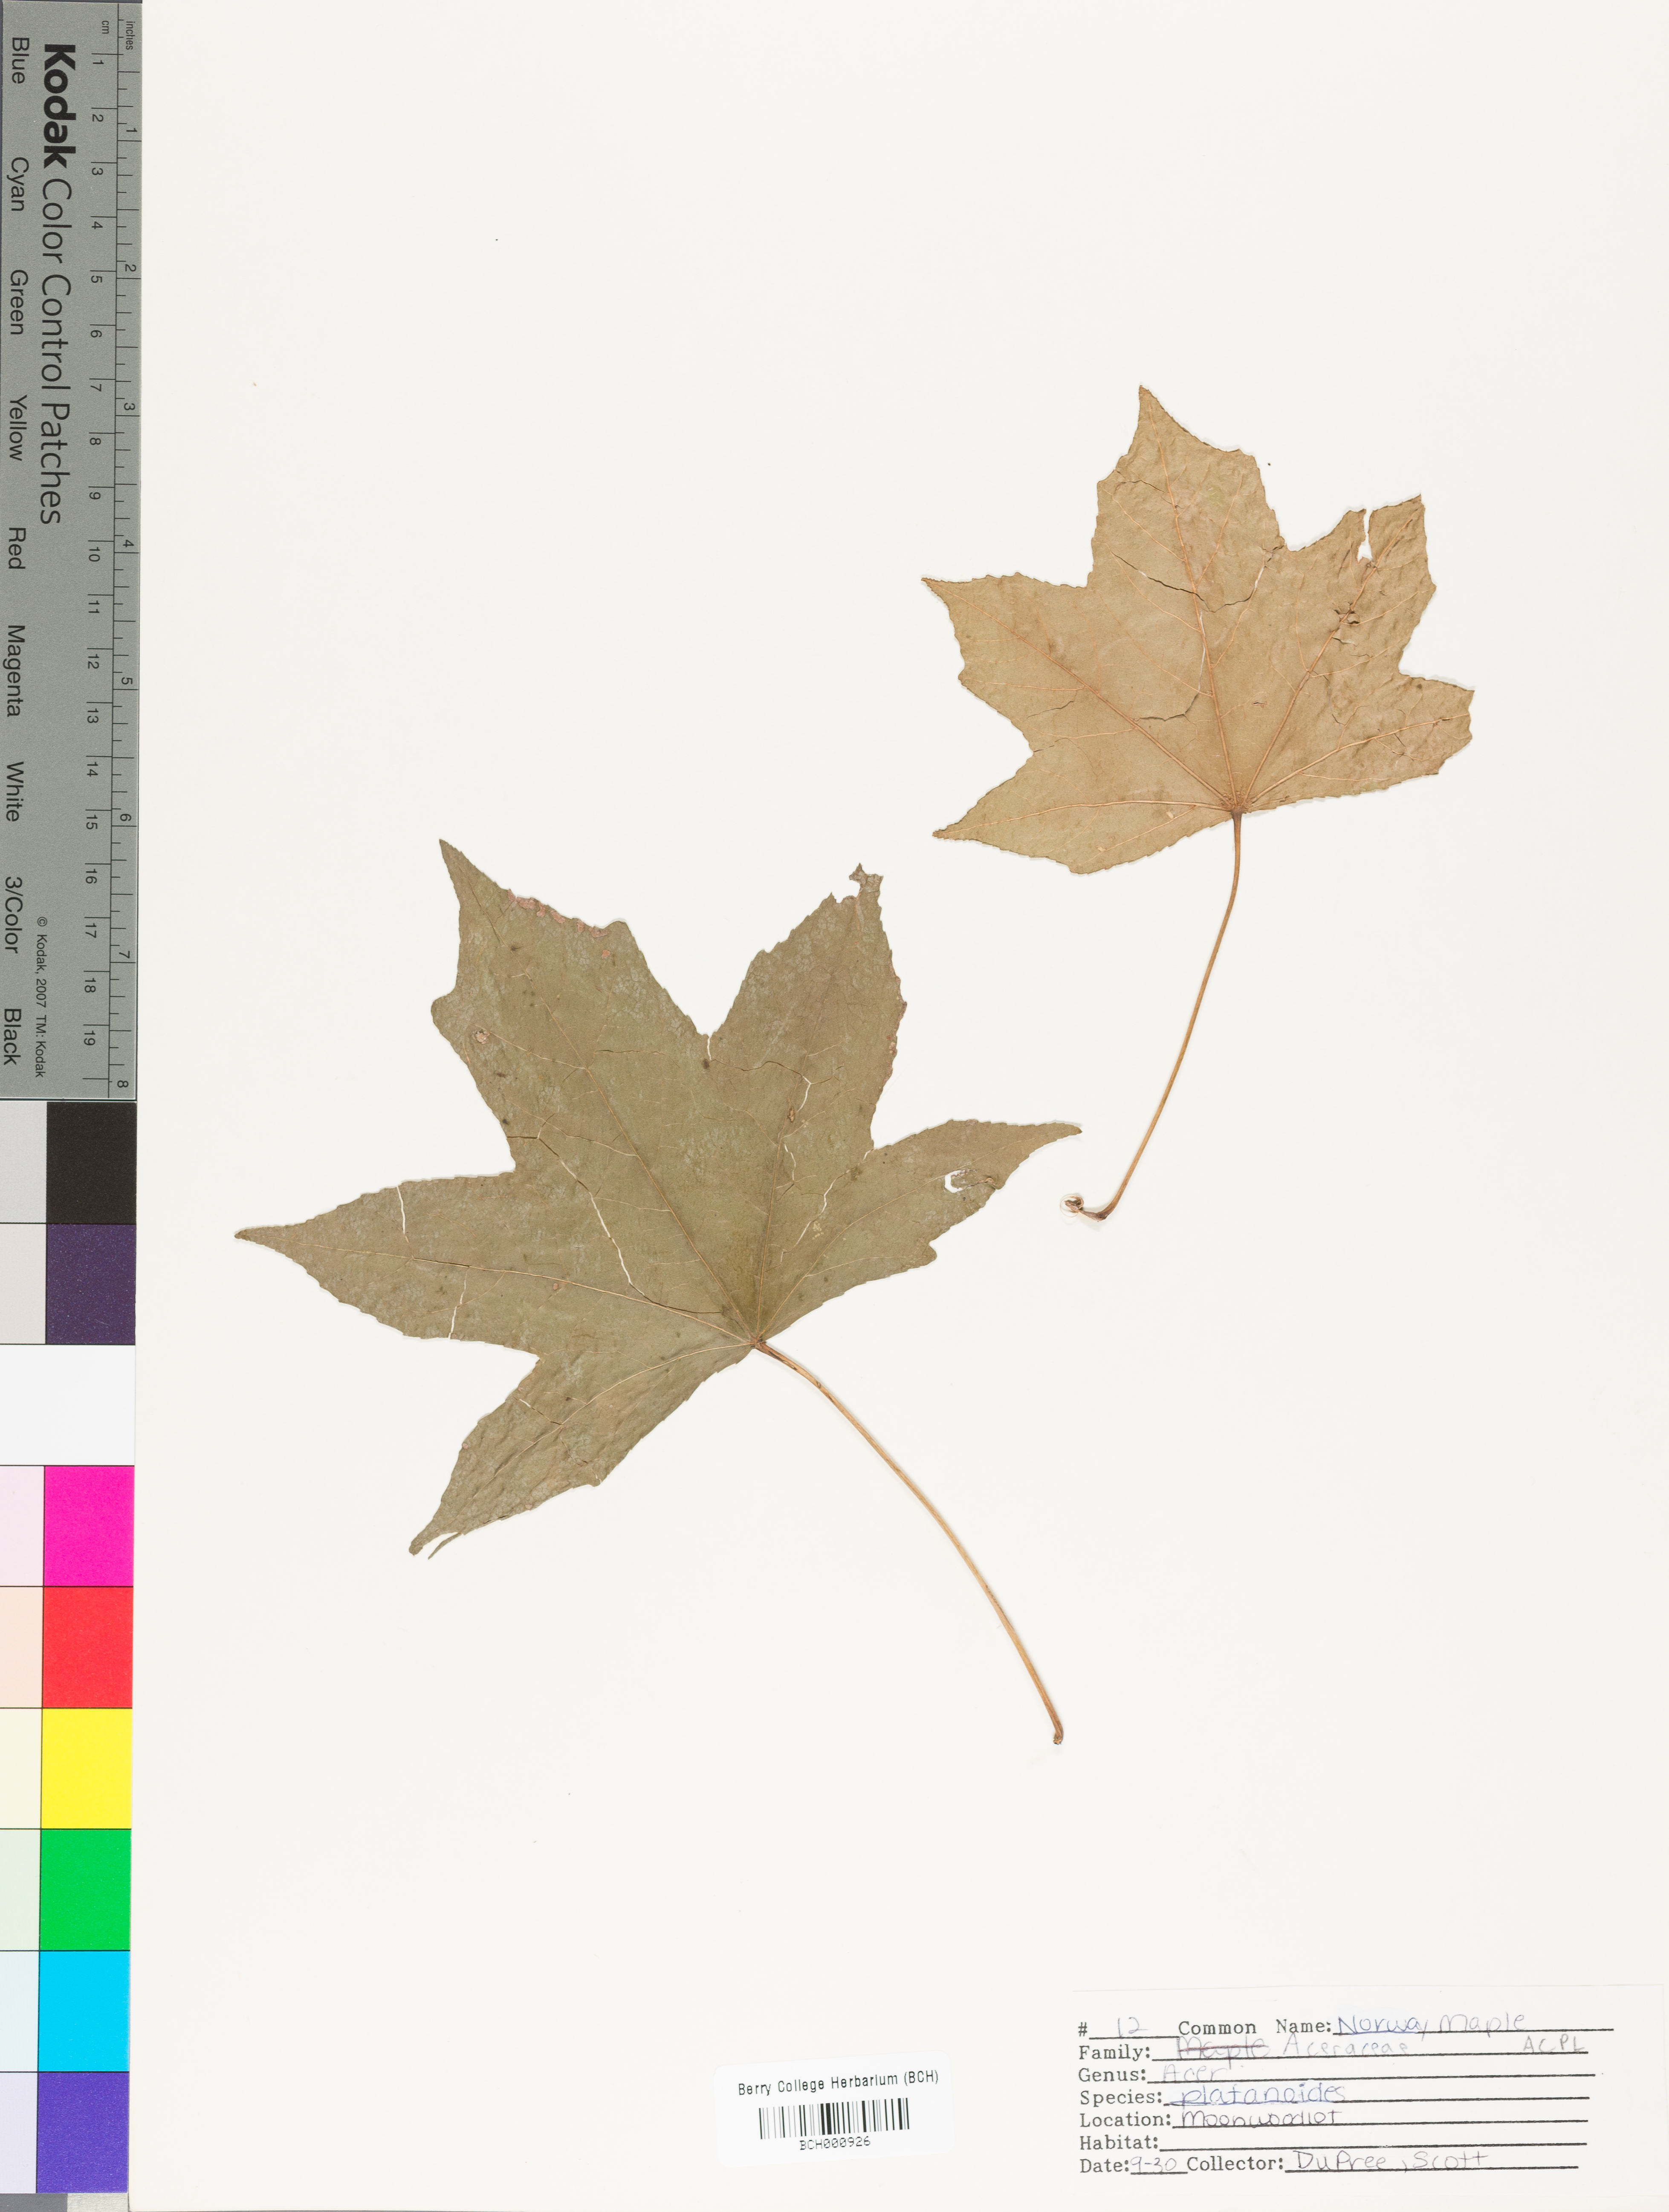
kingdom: Plantae
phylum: Tracheophyta
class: Magnoliopsida
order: Sapindales
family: Sapindaceae
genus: Acer
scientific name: Acer platanoides
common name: Norway maple
